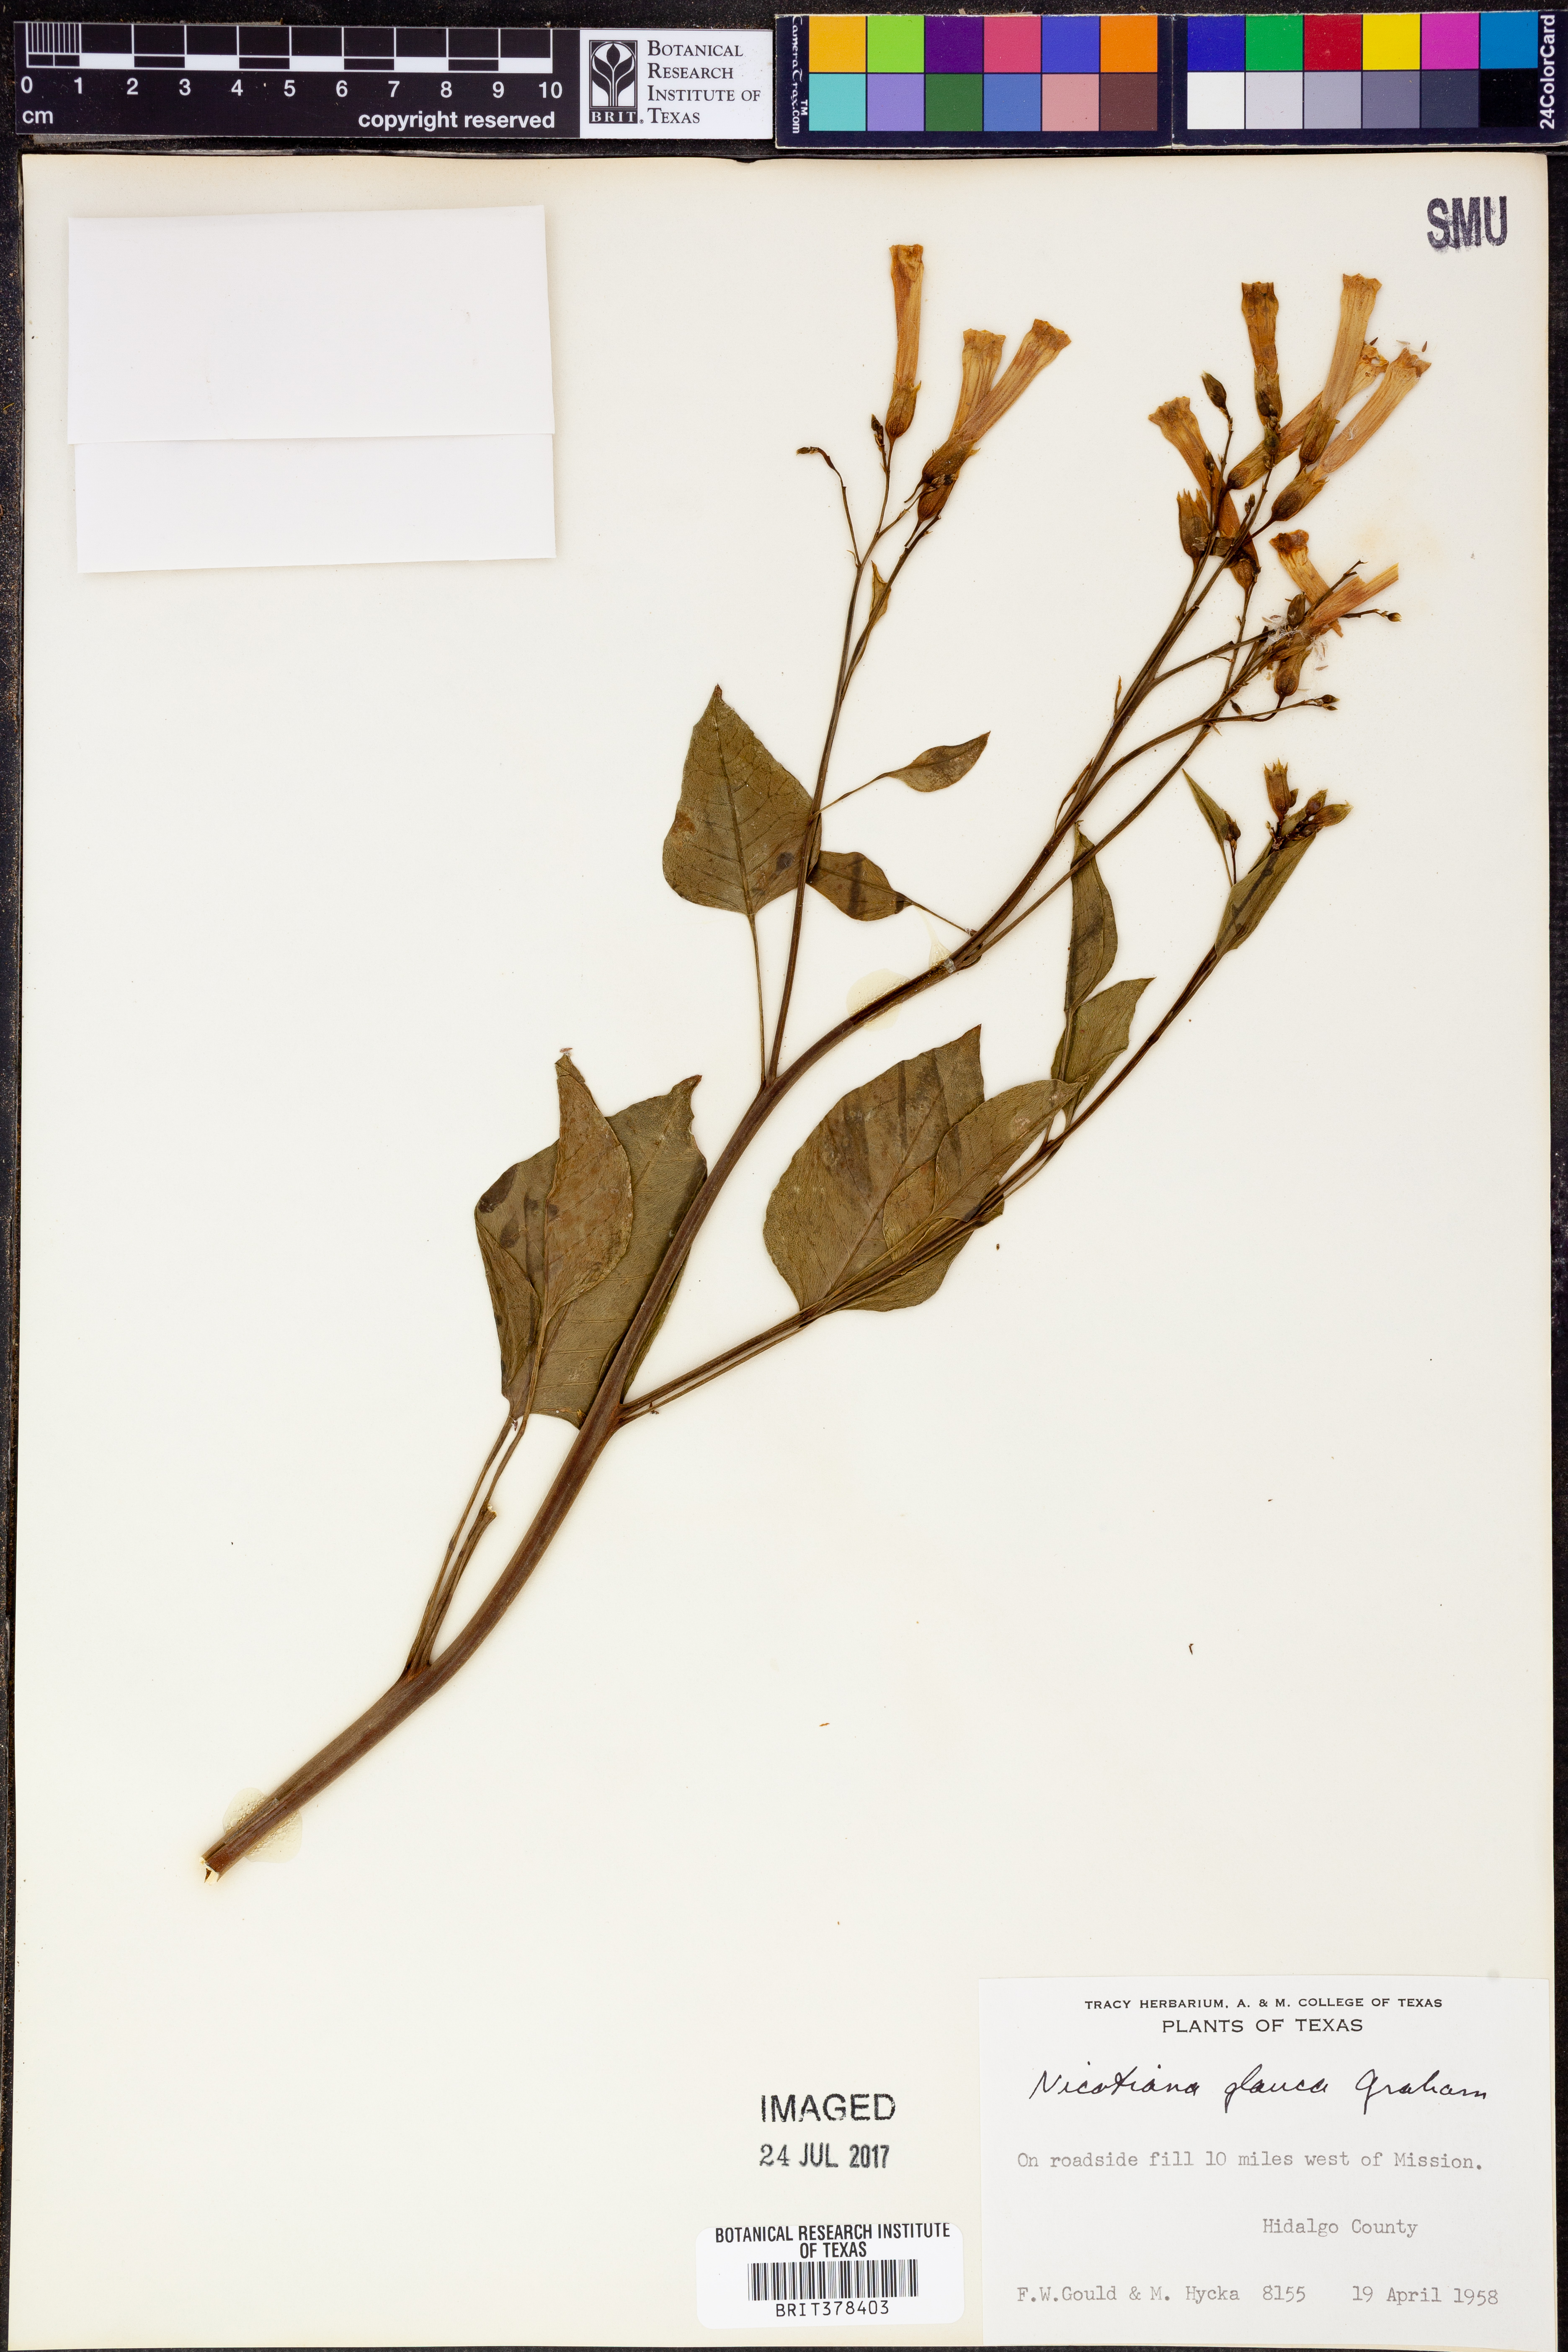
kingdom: Plantae
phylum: Tracheophyta
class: Magnoliopsida
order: Solanales
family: Solanaceae
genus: Nicotiana
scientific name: Nicotiana glauca
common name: Tree tobacco
